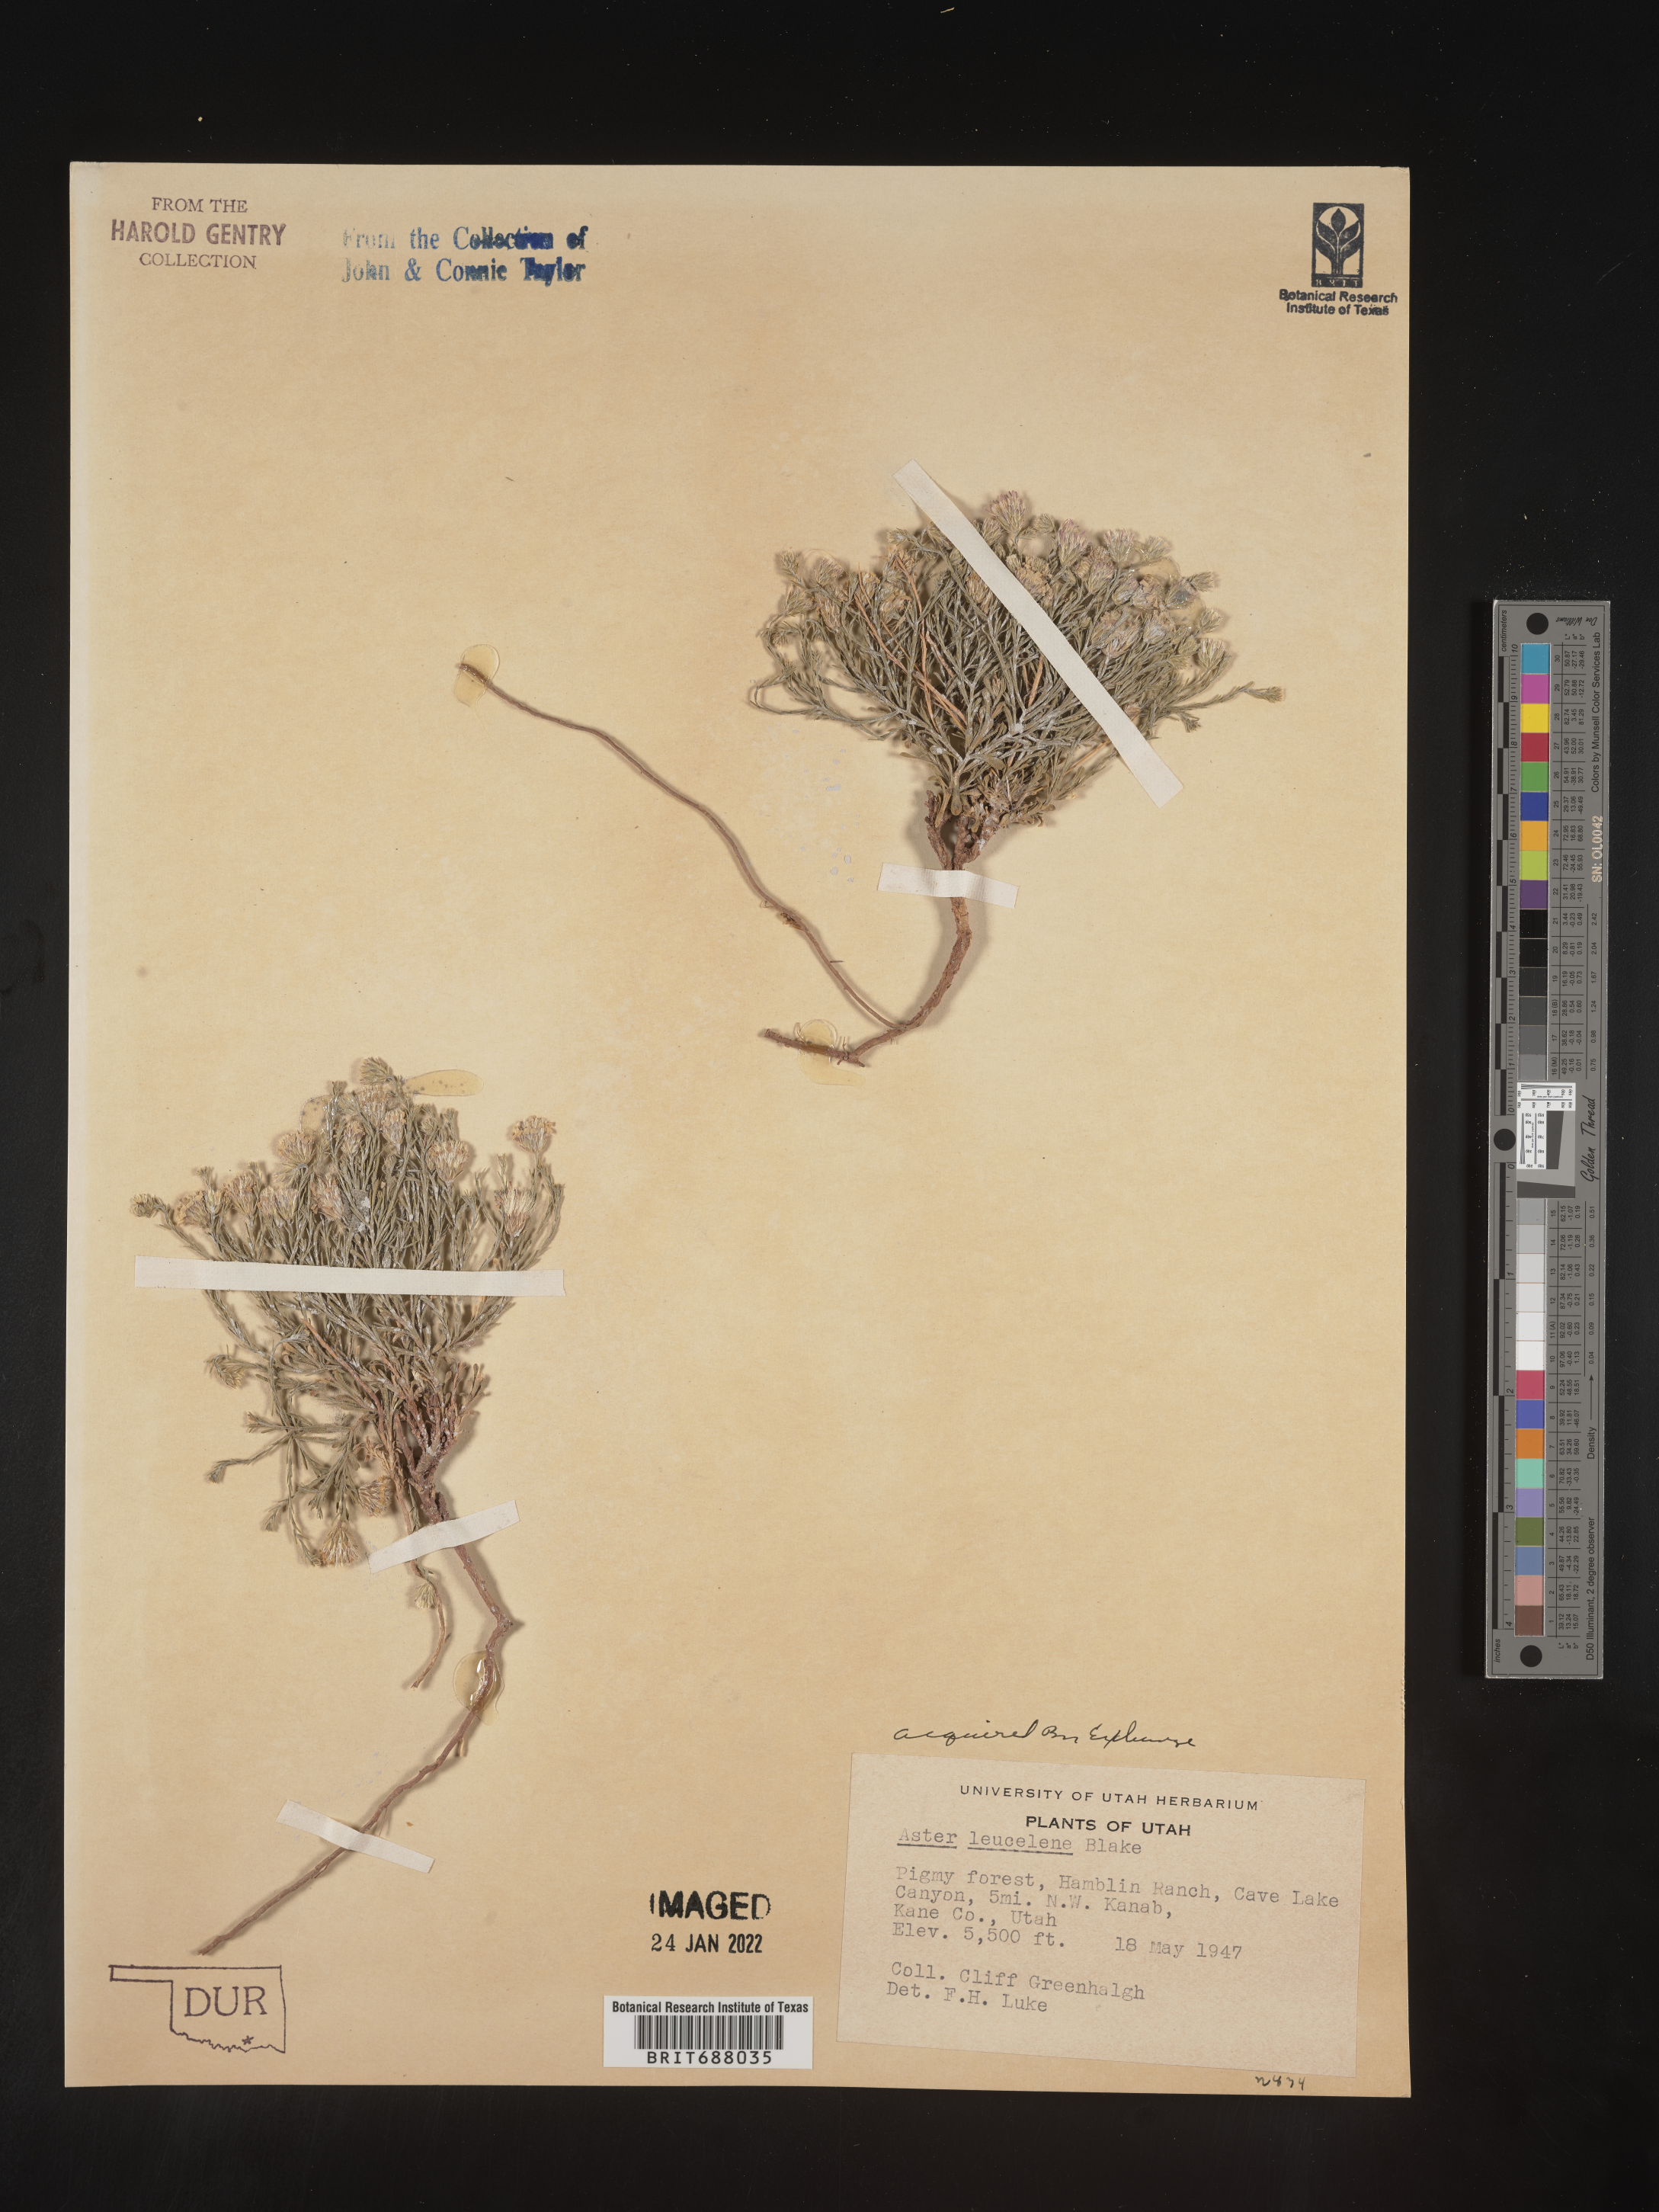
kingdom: Plantae
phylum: Tracheophyta
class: Magnoliopsida
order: Asterales
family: Asteraceae
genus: Chaetopappa
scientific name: Chaetopappa ericoides
